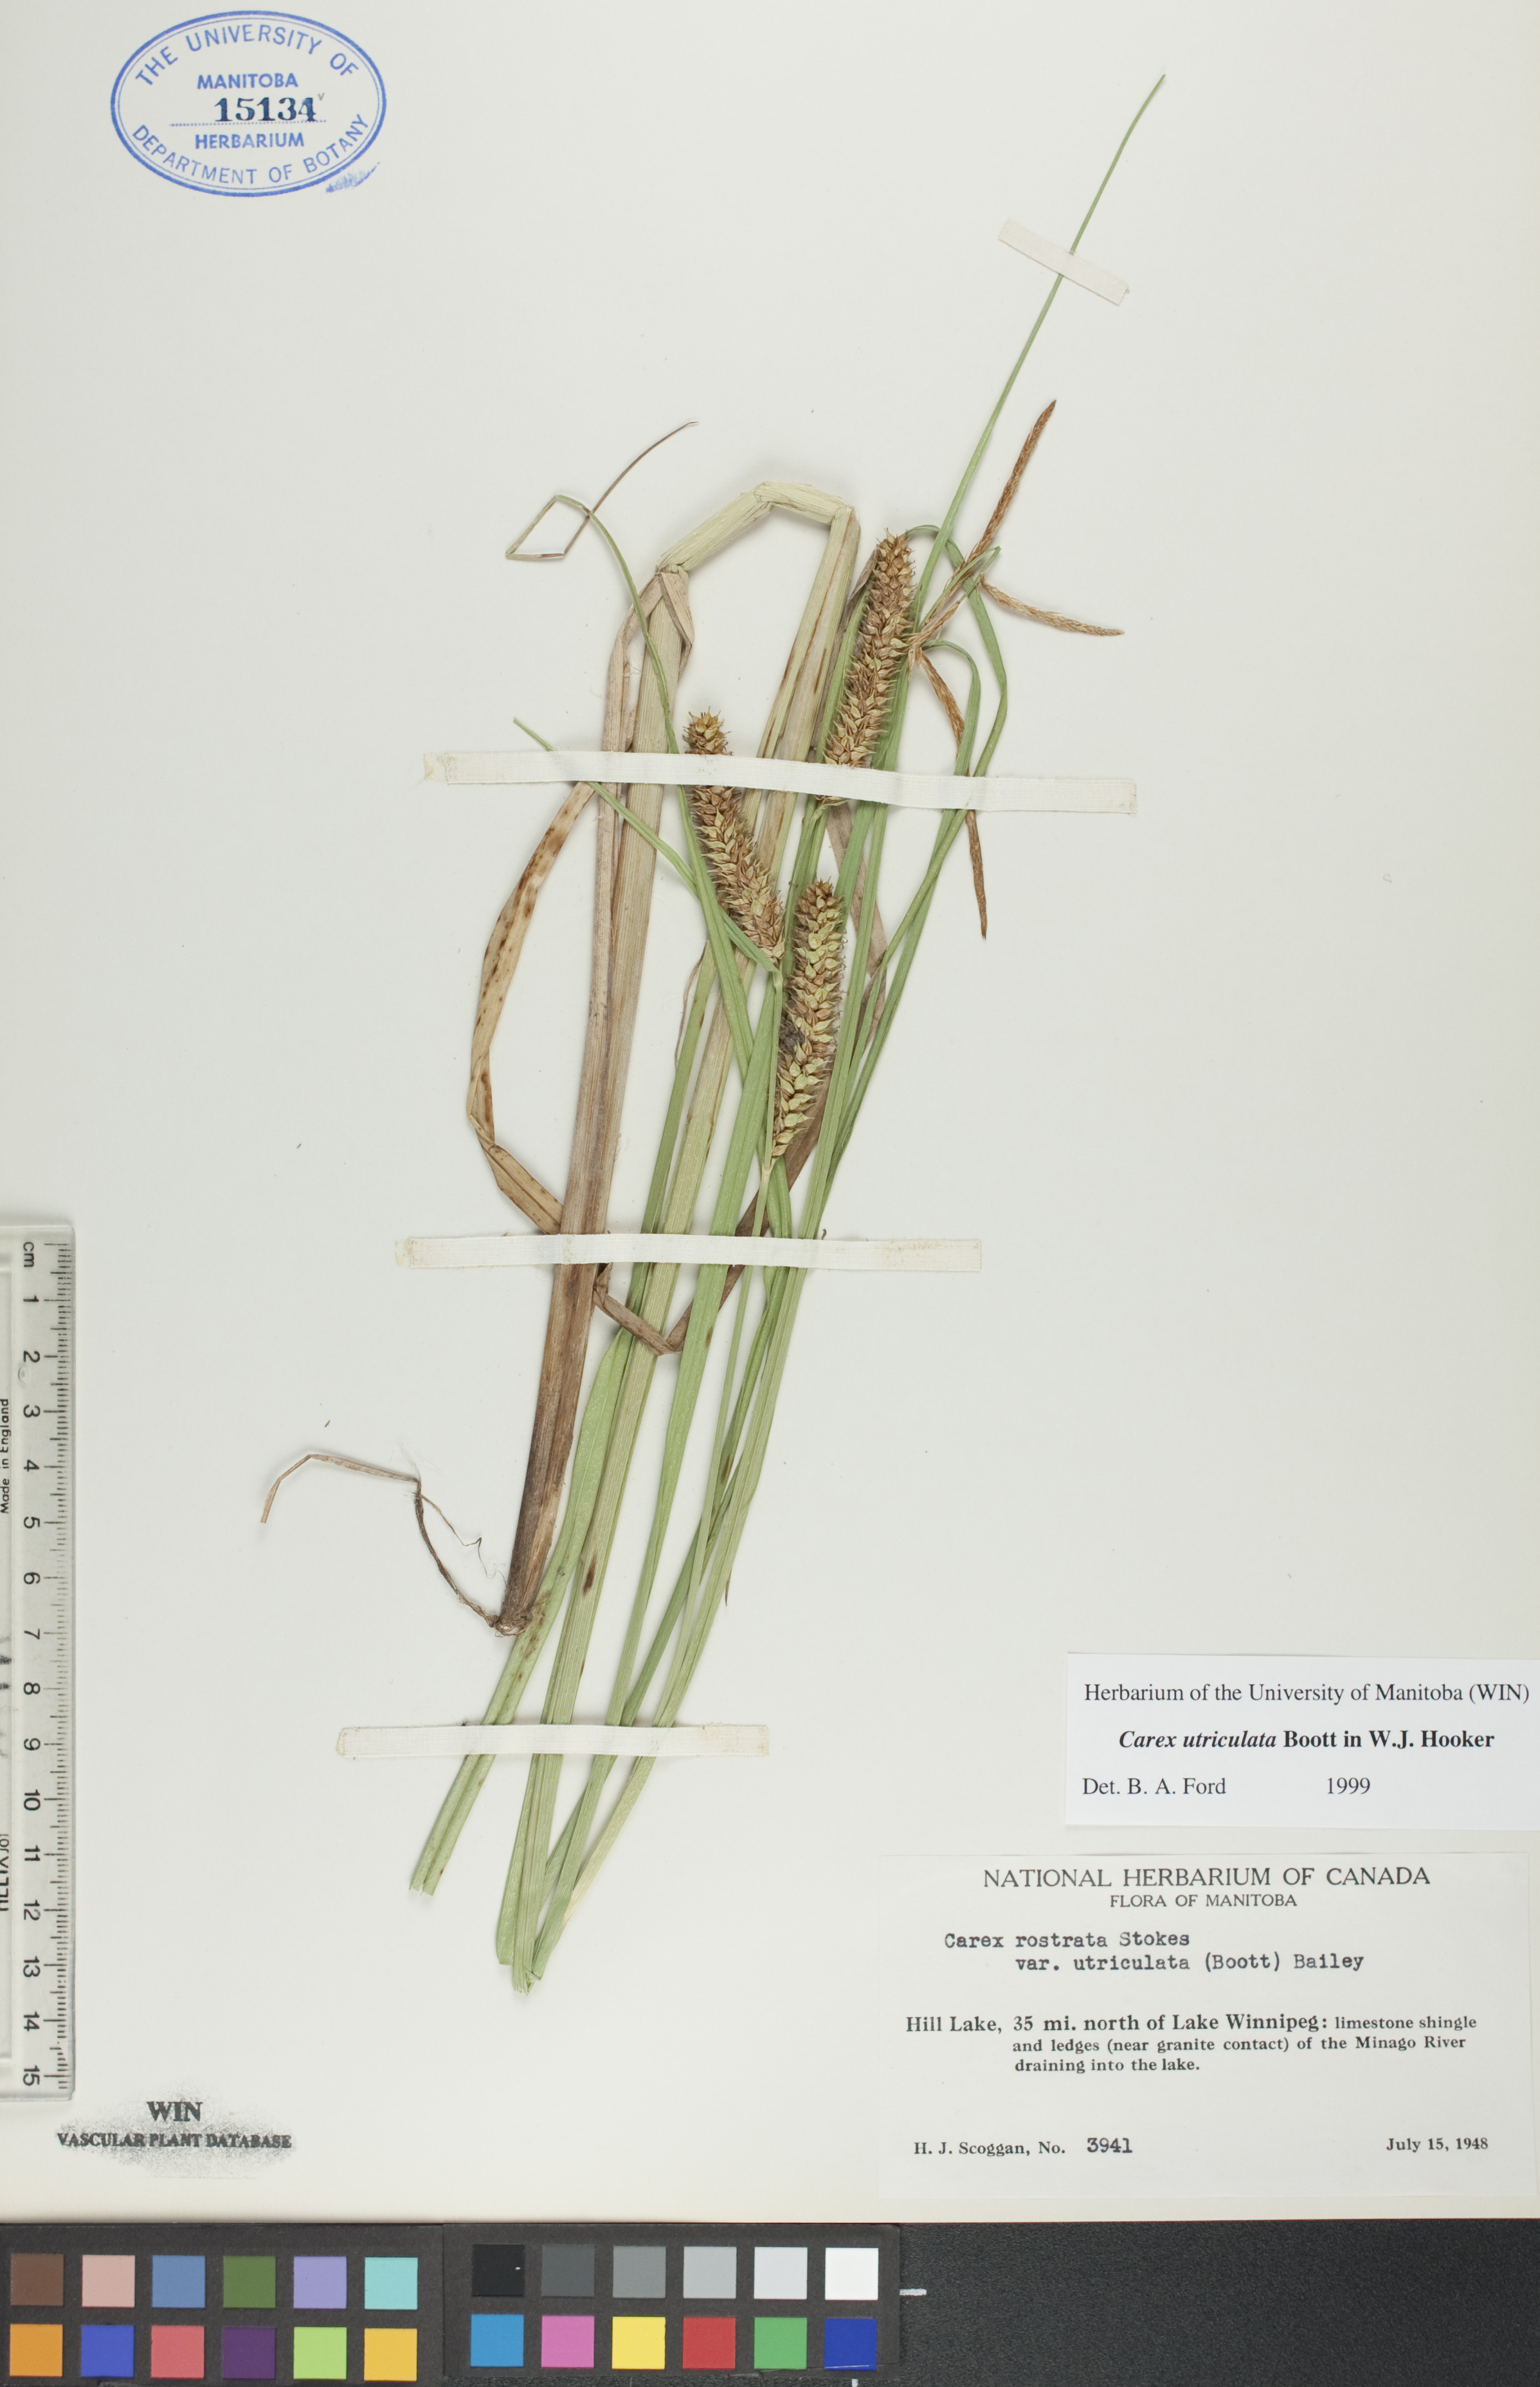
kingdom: Plantae
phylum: Tracheophyta
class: Liliopsida
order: Poales
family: Cyperaceae
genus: Carex
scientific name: Carex utriculata
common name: Beaked sedge
